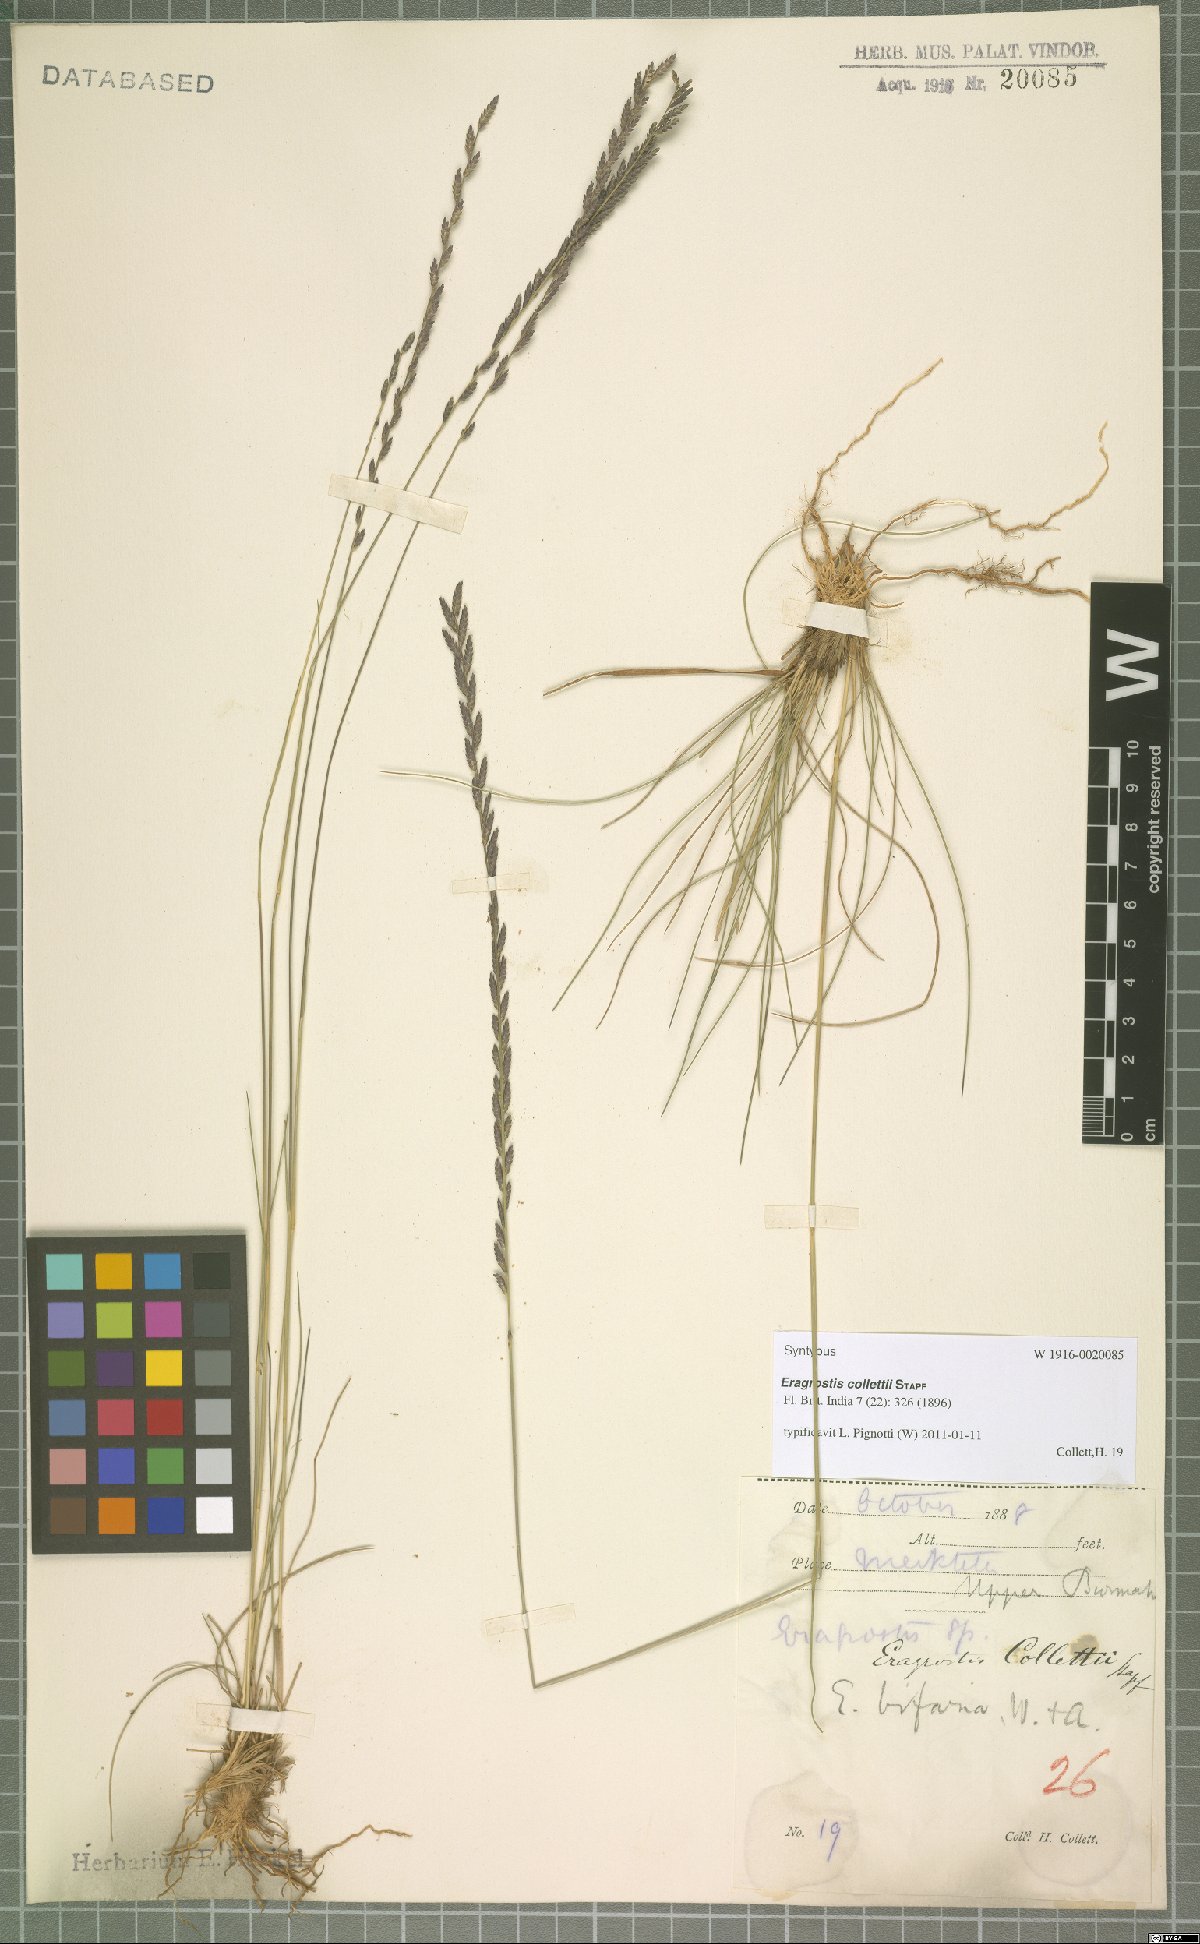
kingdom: Plantae
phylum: Tracheophyta
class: Liliopsida
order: Poales
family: Poaceae
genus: Eragrostiella
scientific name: Eragrostiella collettii
